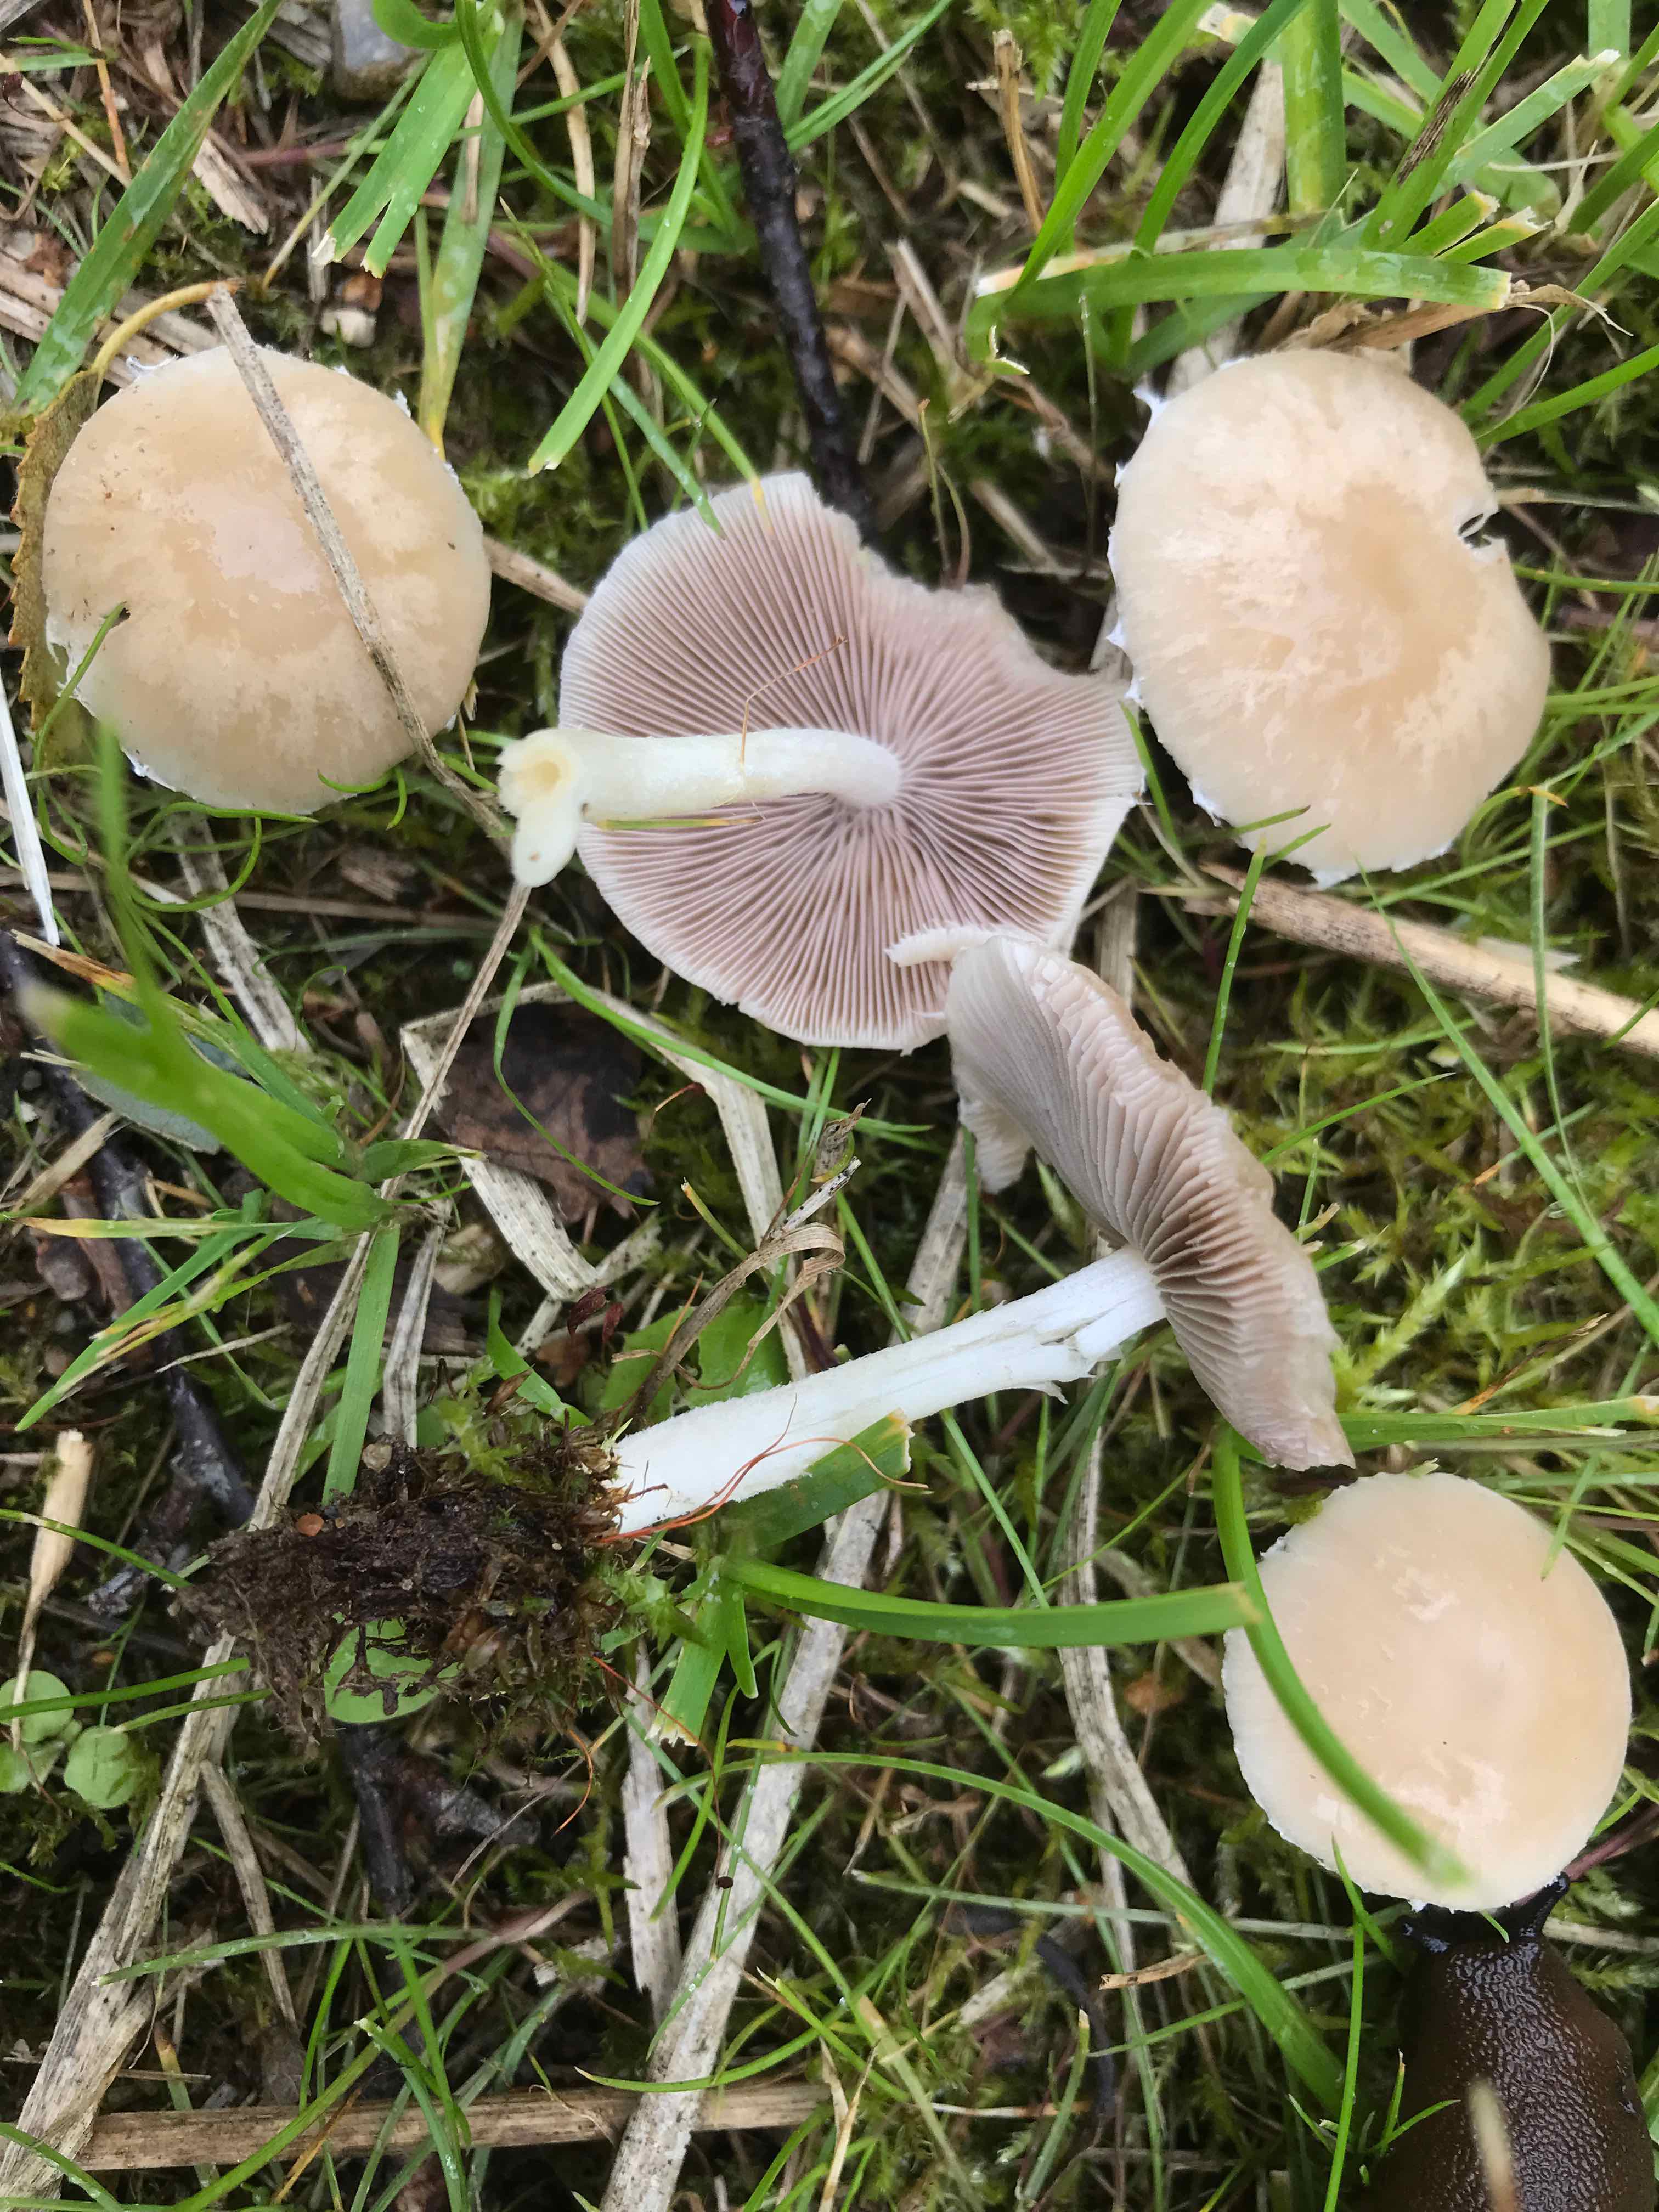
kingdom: Fungi
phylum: Basidiomycota
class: Agaricomycetes
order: Agaricales
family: Psathyrellaceae
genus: Candolleomyces
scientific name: Candolleomyces candolleanus
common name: Candolles mørkhat
